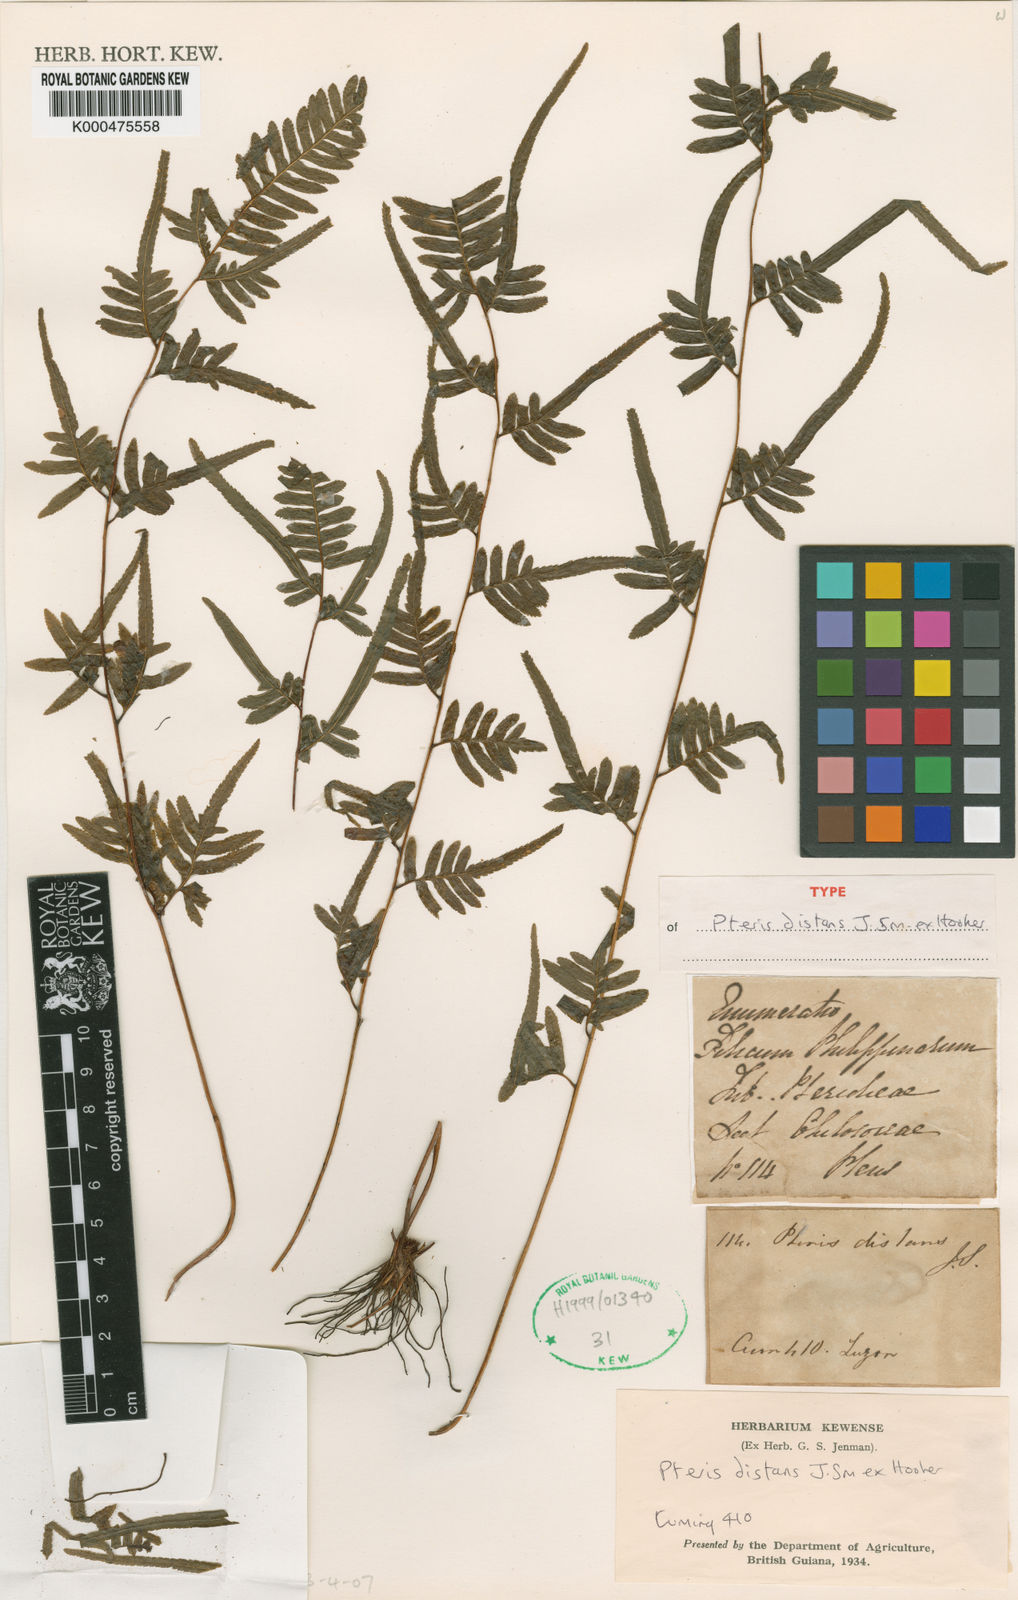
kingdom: Plantae
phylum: Tracheophyta
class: Polypodiopsida
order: Polypodiales
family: Pteridaceae
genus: Pteris
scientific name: Pteris distans
